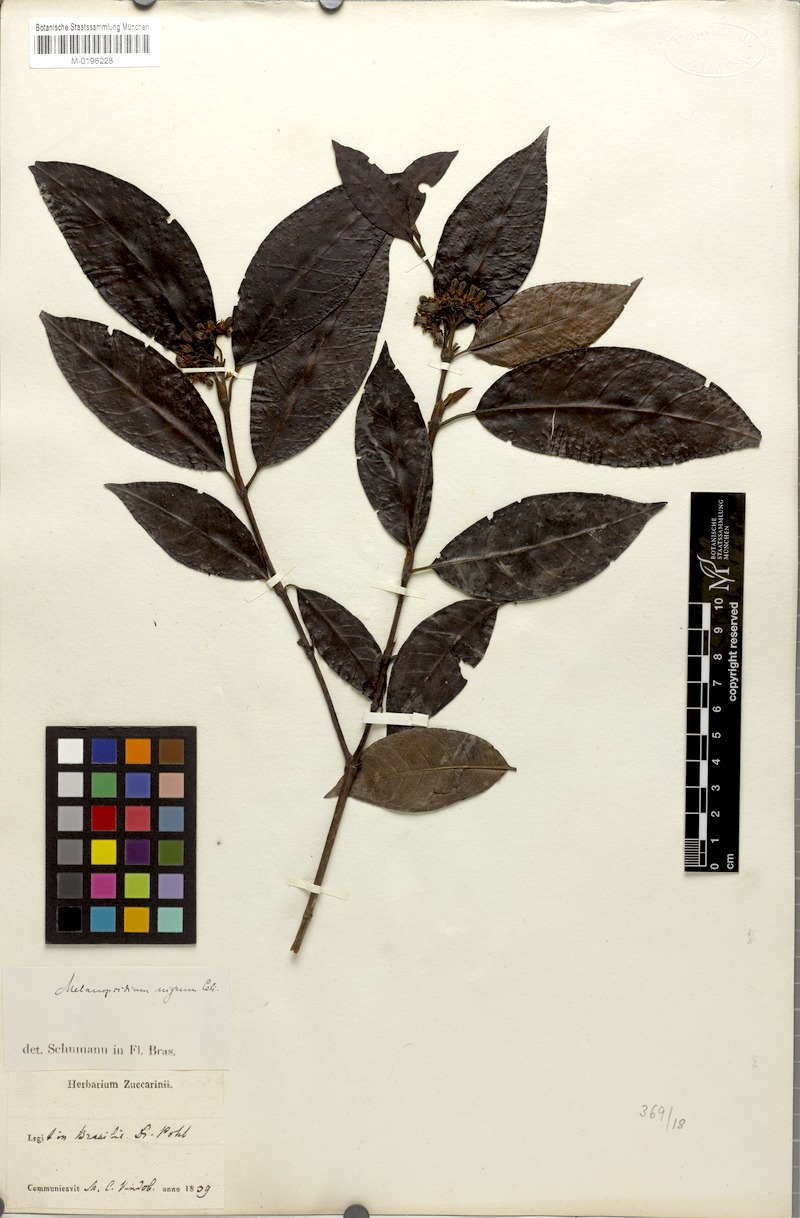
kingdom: Plantae
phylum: Tracheophyta
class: Magnoliopsida
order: Gentianales
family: Rubiaceae
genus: Melanopsidium
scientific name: Melanopsidium nigrum
